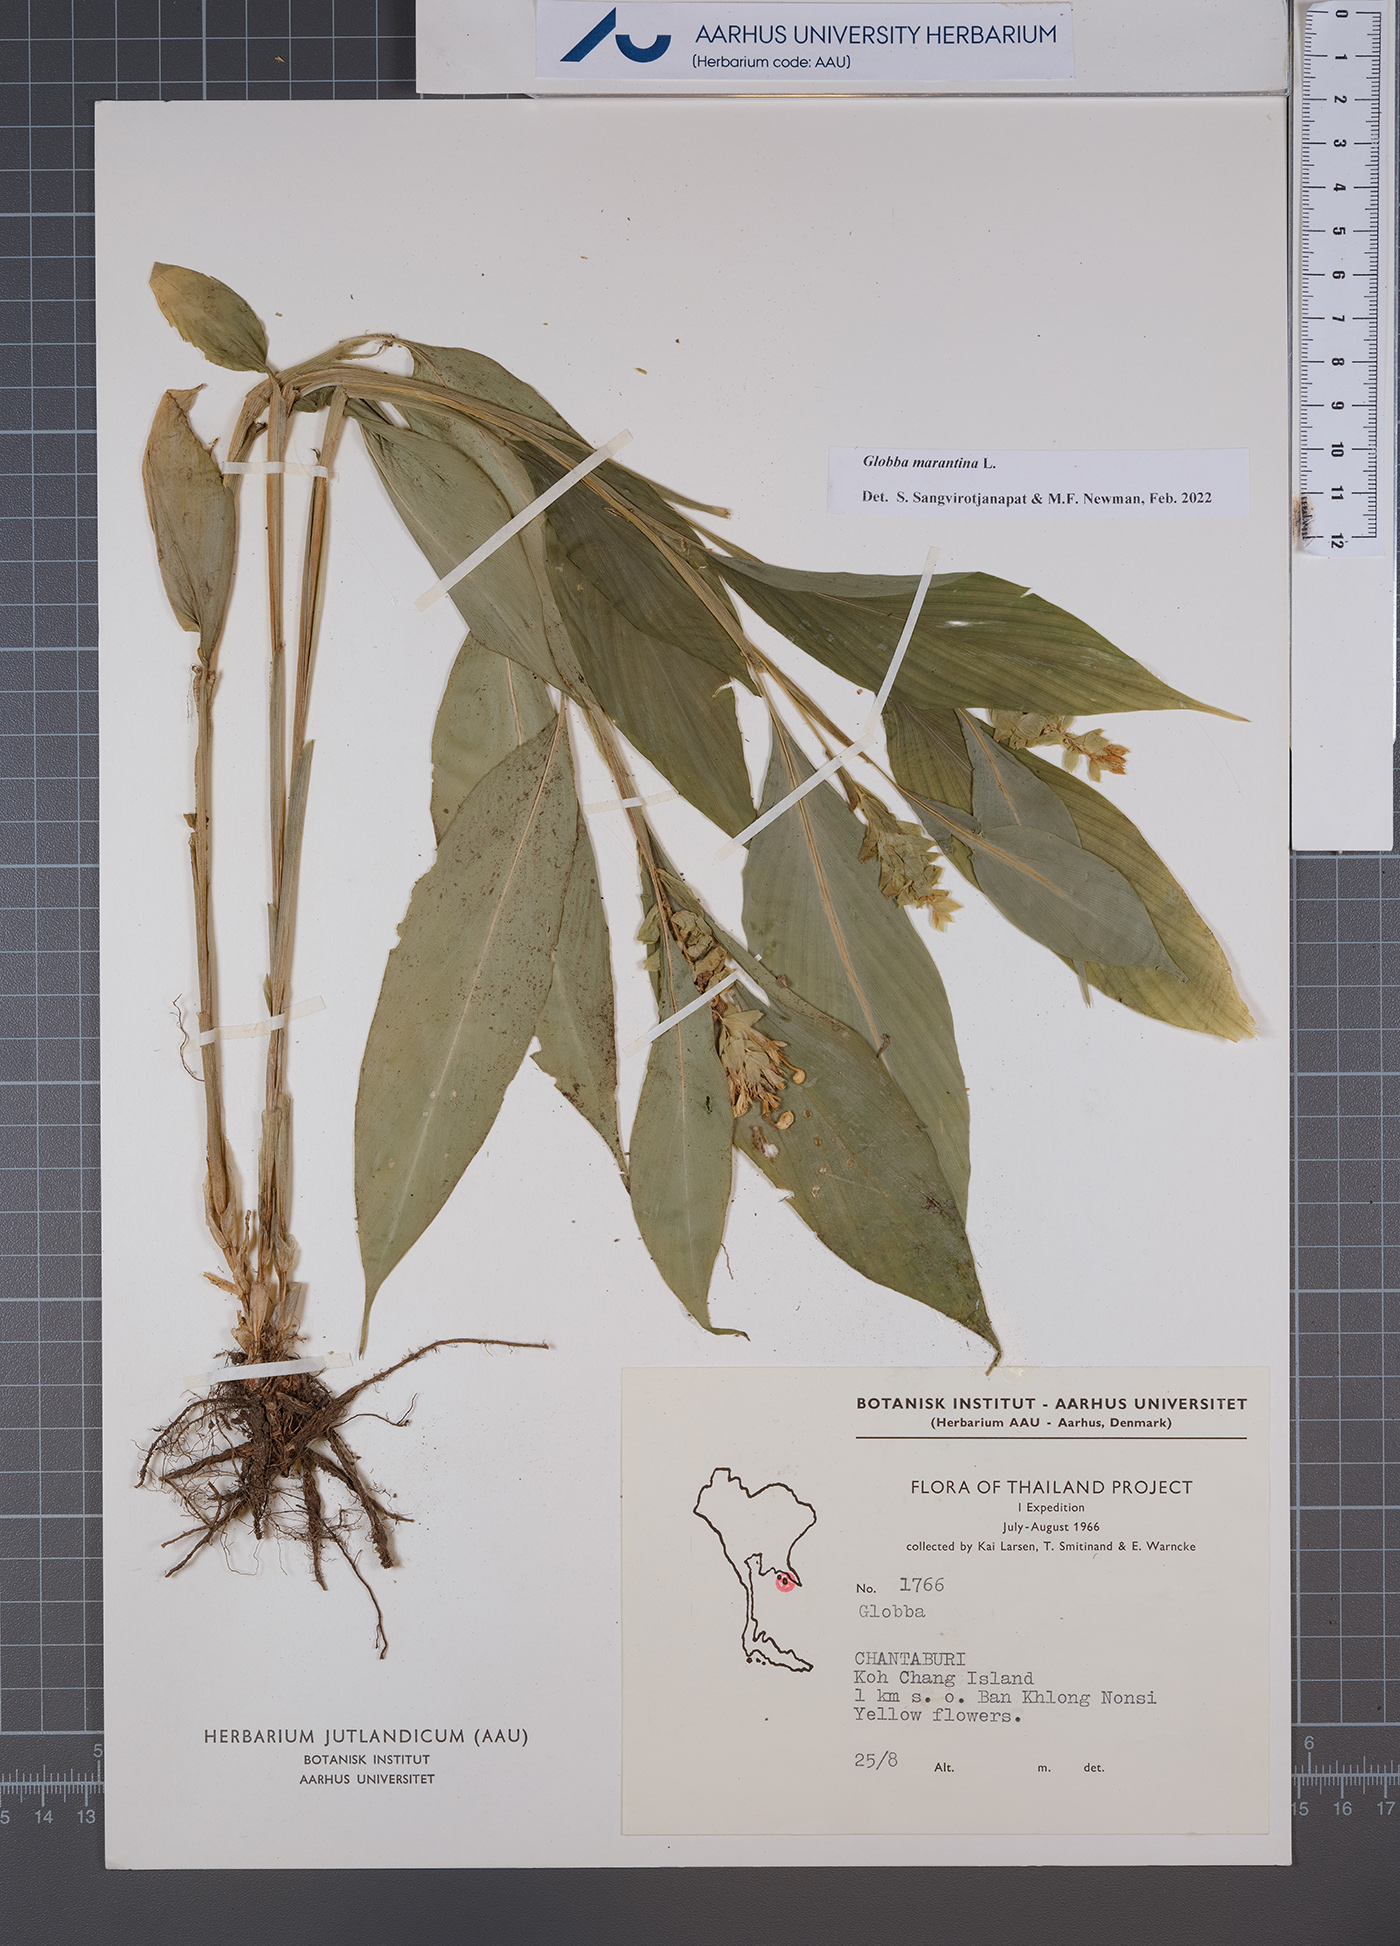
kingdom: Plantae
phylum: Tracheophyta
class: Liliopsida
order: Zingiberales
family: Zingiberaceae
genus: Globba
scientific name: Globba marantina
